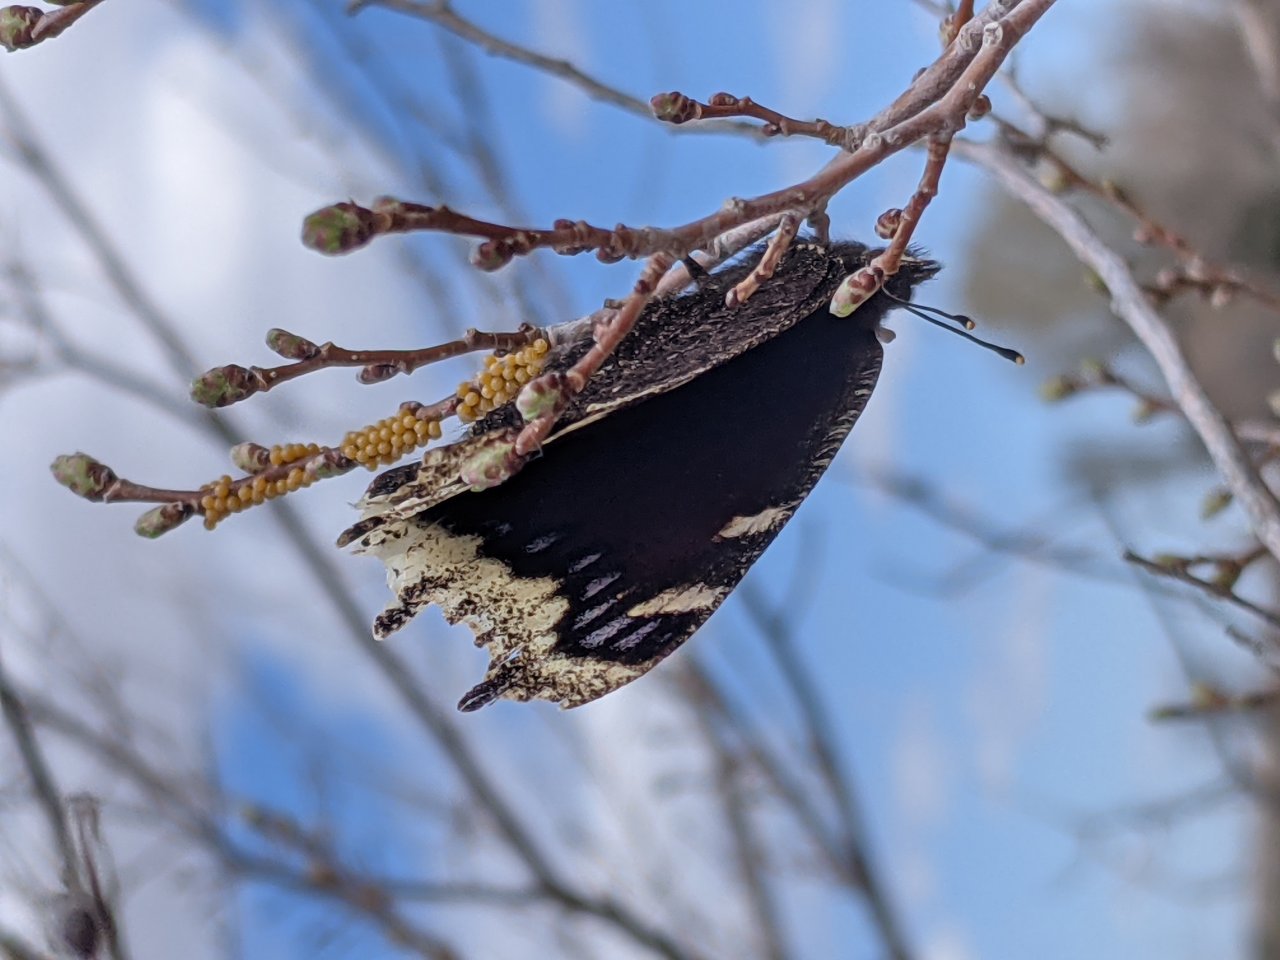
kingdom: Animalia
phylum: Arthropoda
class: Insecta
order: Lepidoptera
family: Nymphalidae
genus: Nymphalis
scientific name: Nymphalis antiopa
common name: Mourning Cloak
